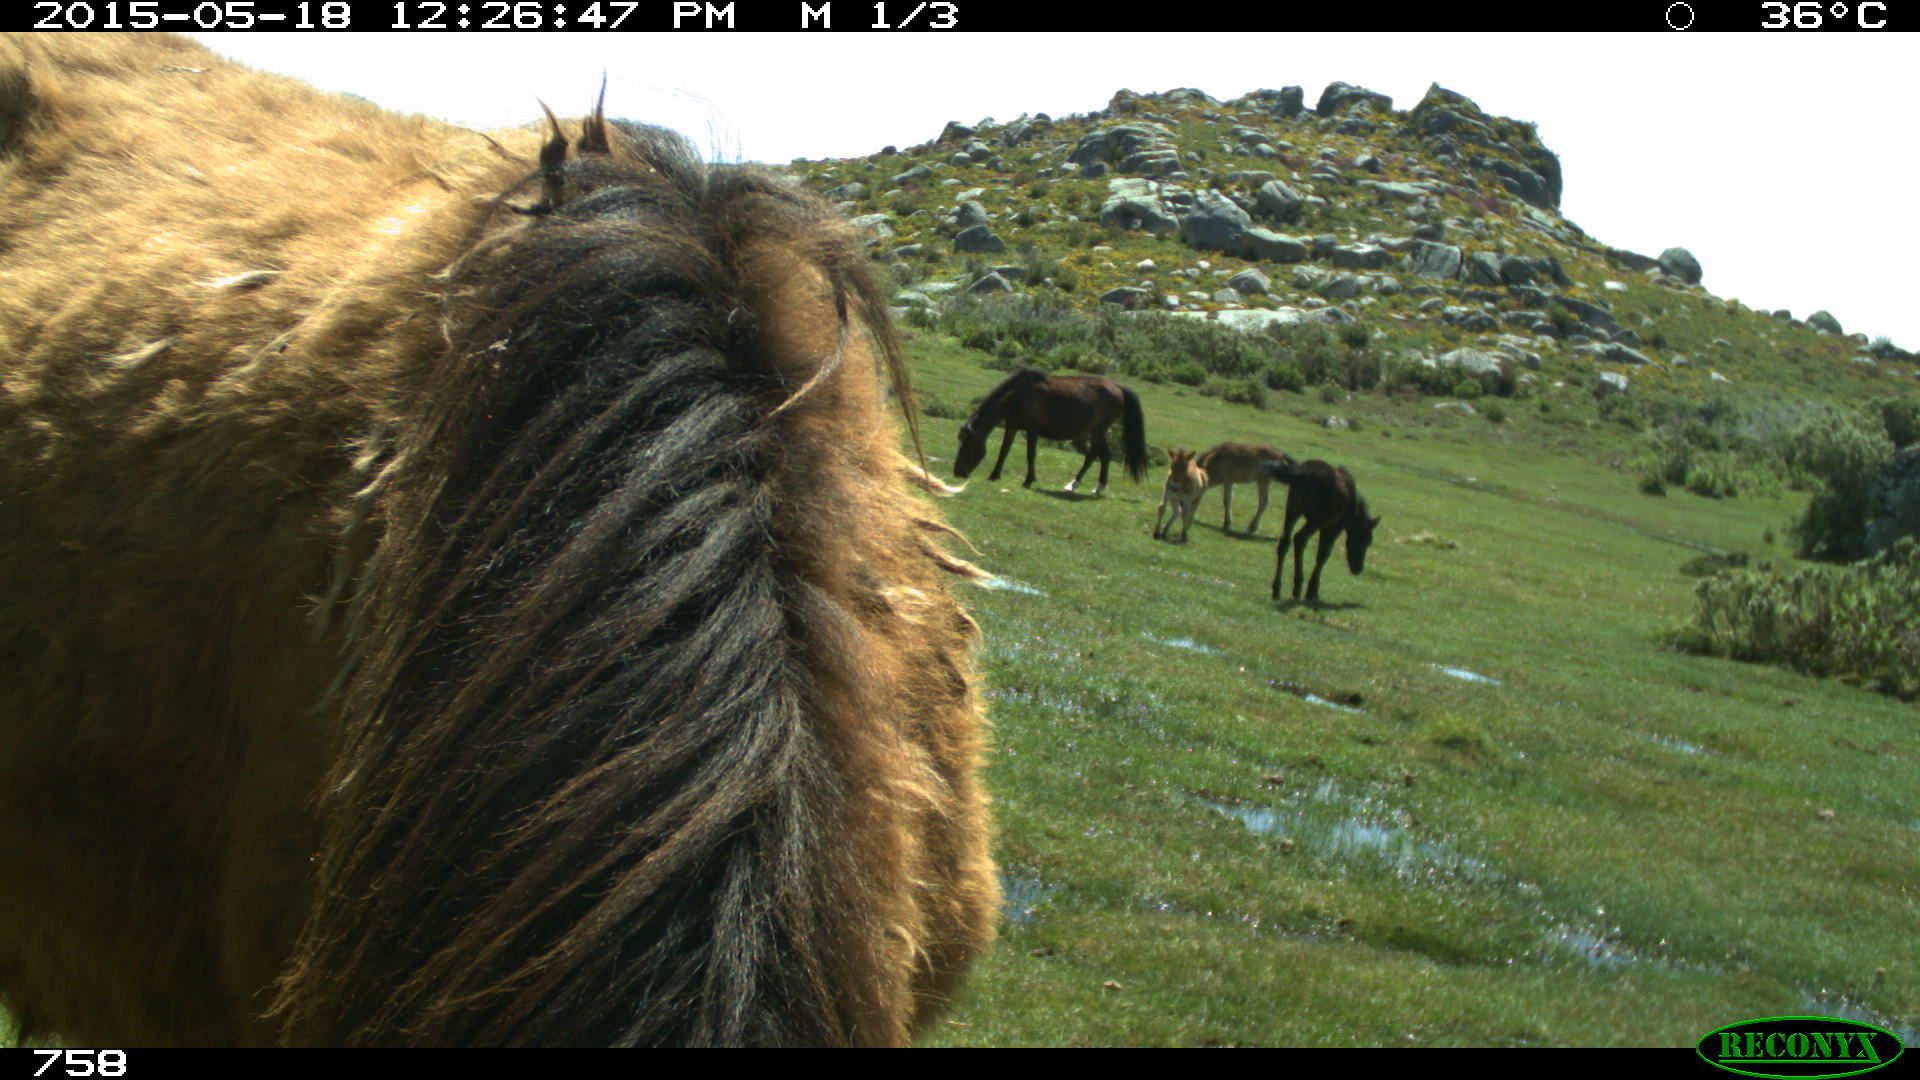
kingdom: Animalia
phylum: Chordata
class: Mammalia
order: Perissodactyla
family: Equidae
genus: Equus
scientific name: Equus caballus
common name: Horse
